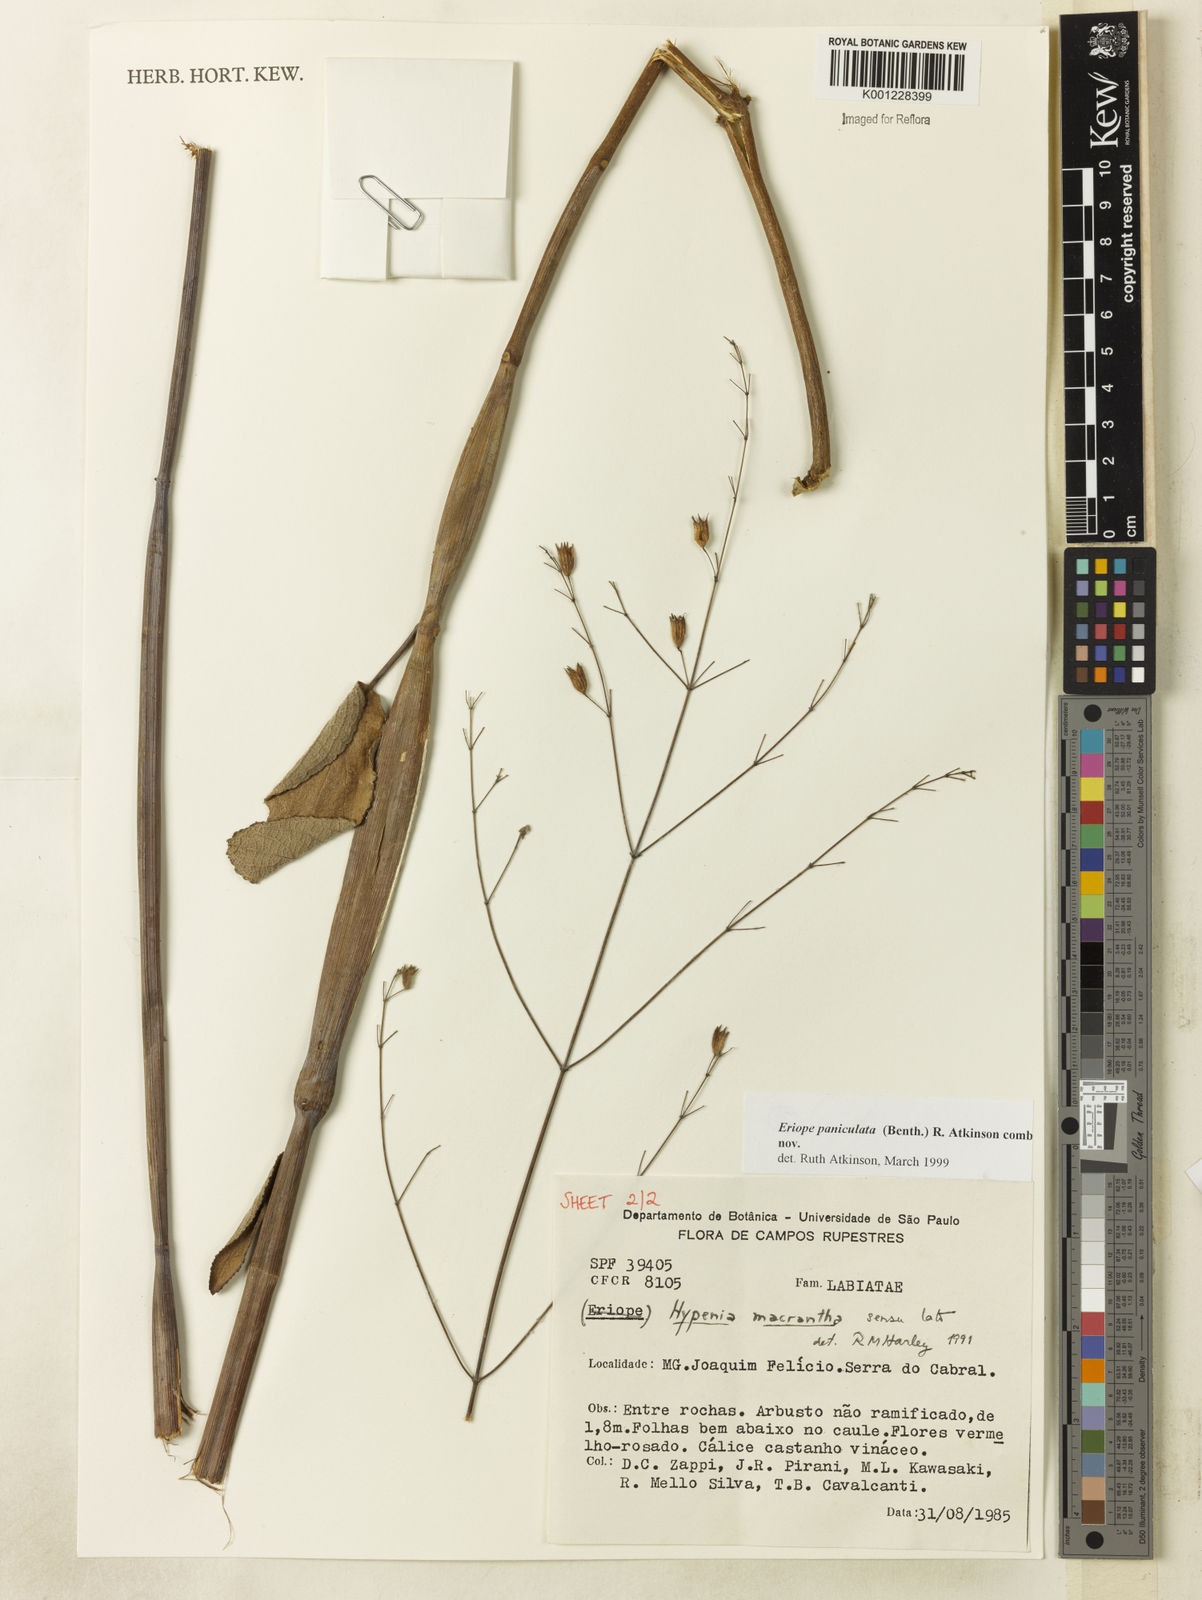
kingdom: Plantae
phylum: Tracheophyta
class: Magnoliopsida
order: Lamiales
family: Lamiaceae
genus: Hypenia
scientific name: Hypenia paniculata
